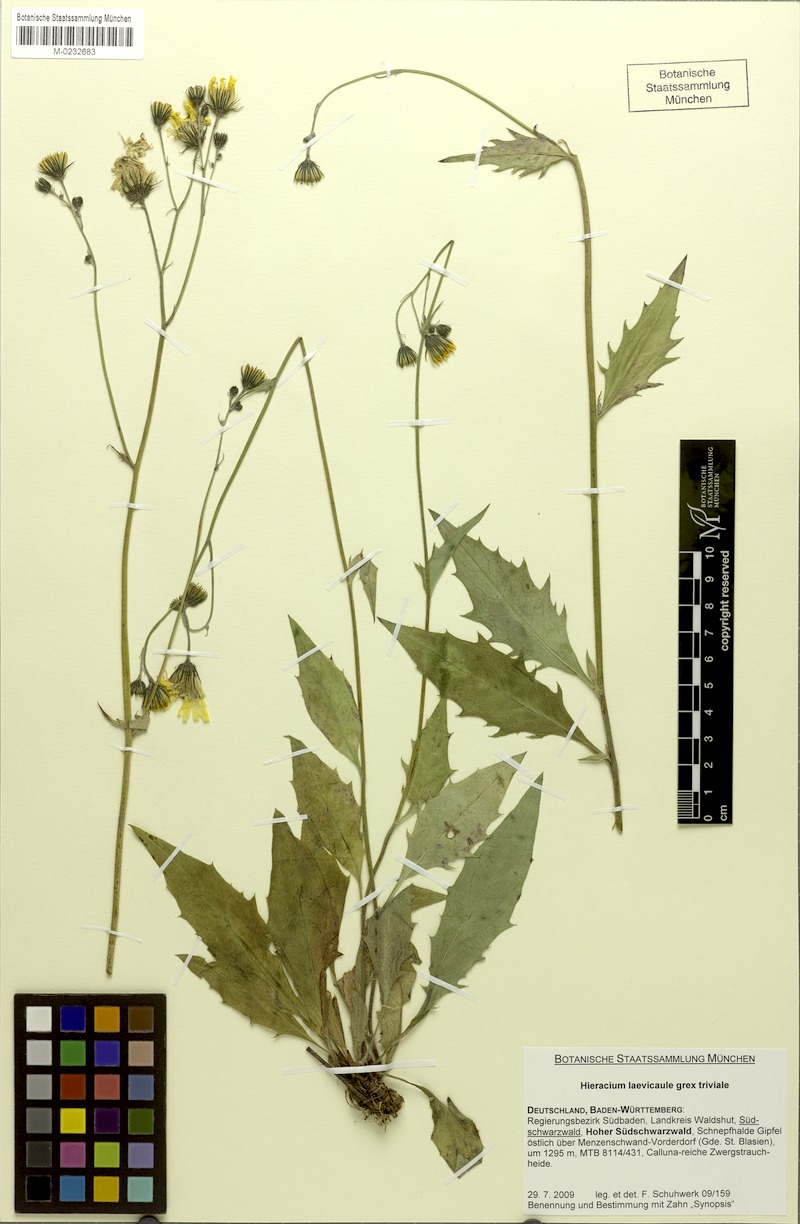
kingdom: Plantae
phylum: Tracheophyta
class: Magnoliopsida
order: Asterales
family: Asteraceae
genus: Hieracium
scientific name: Hieracium
